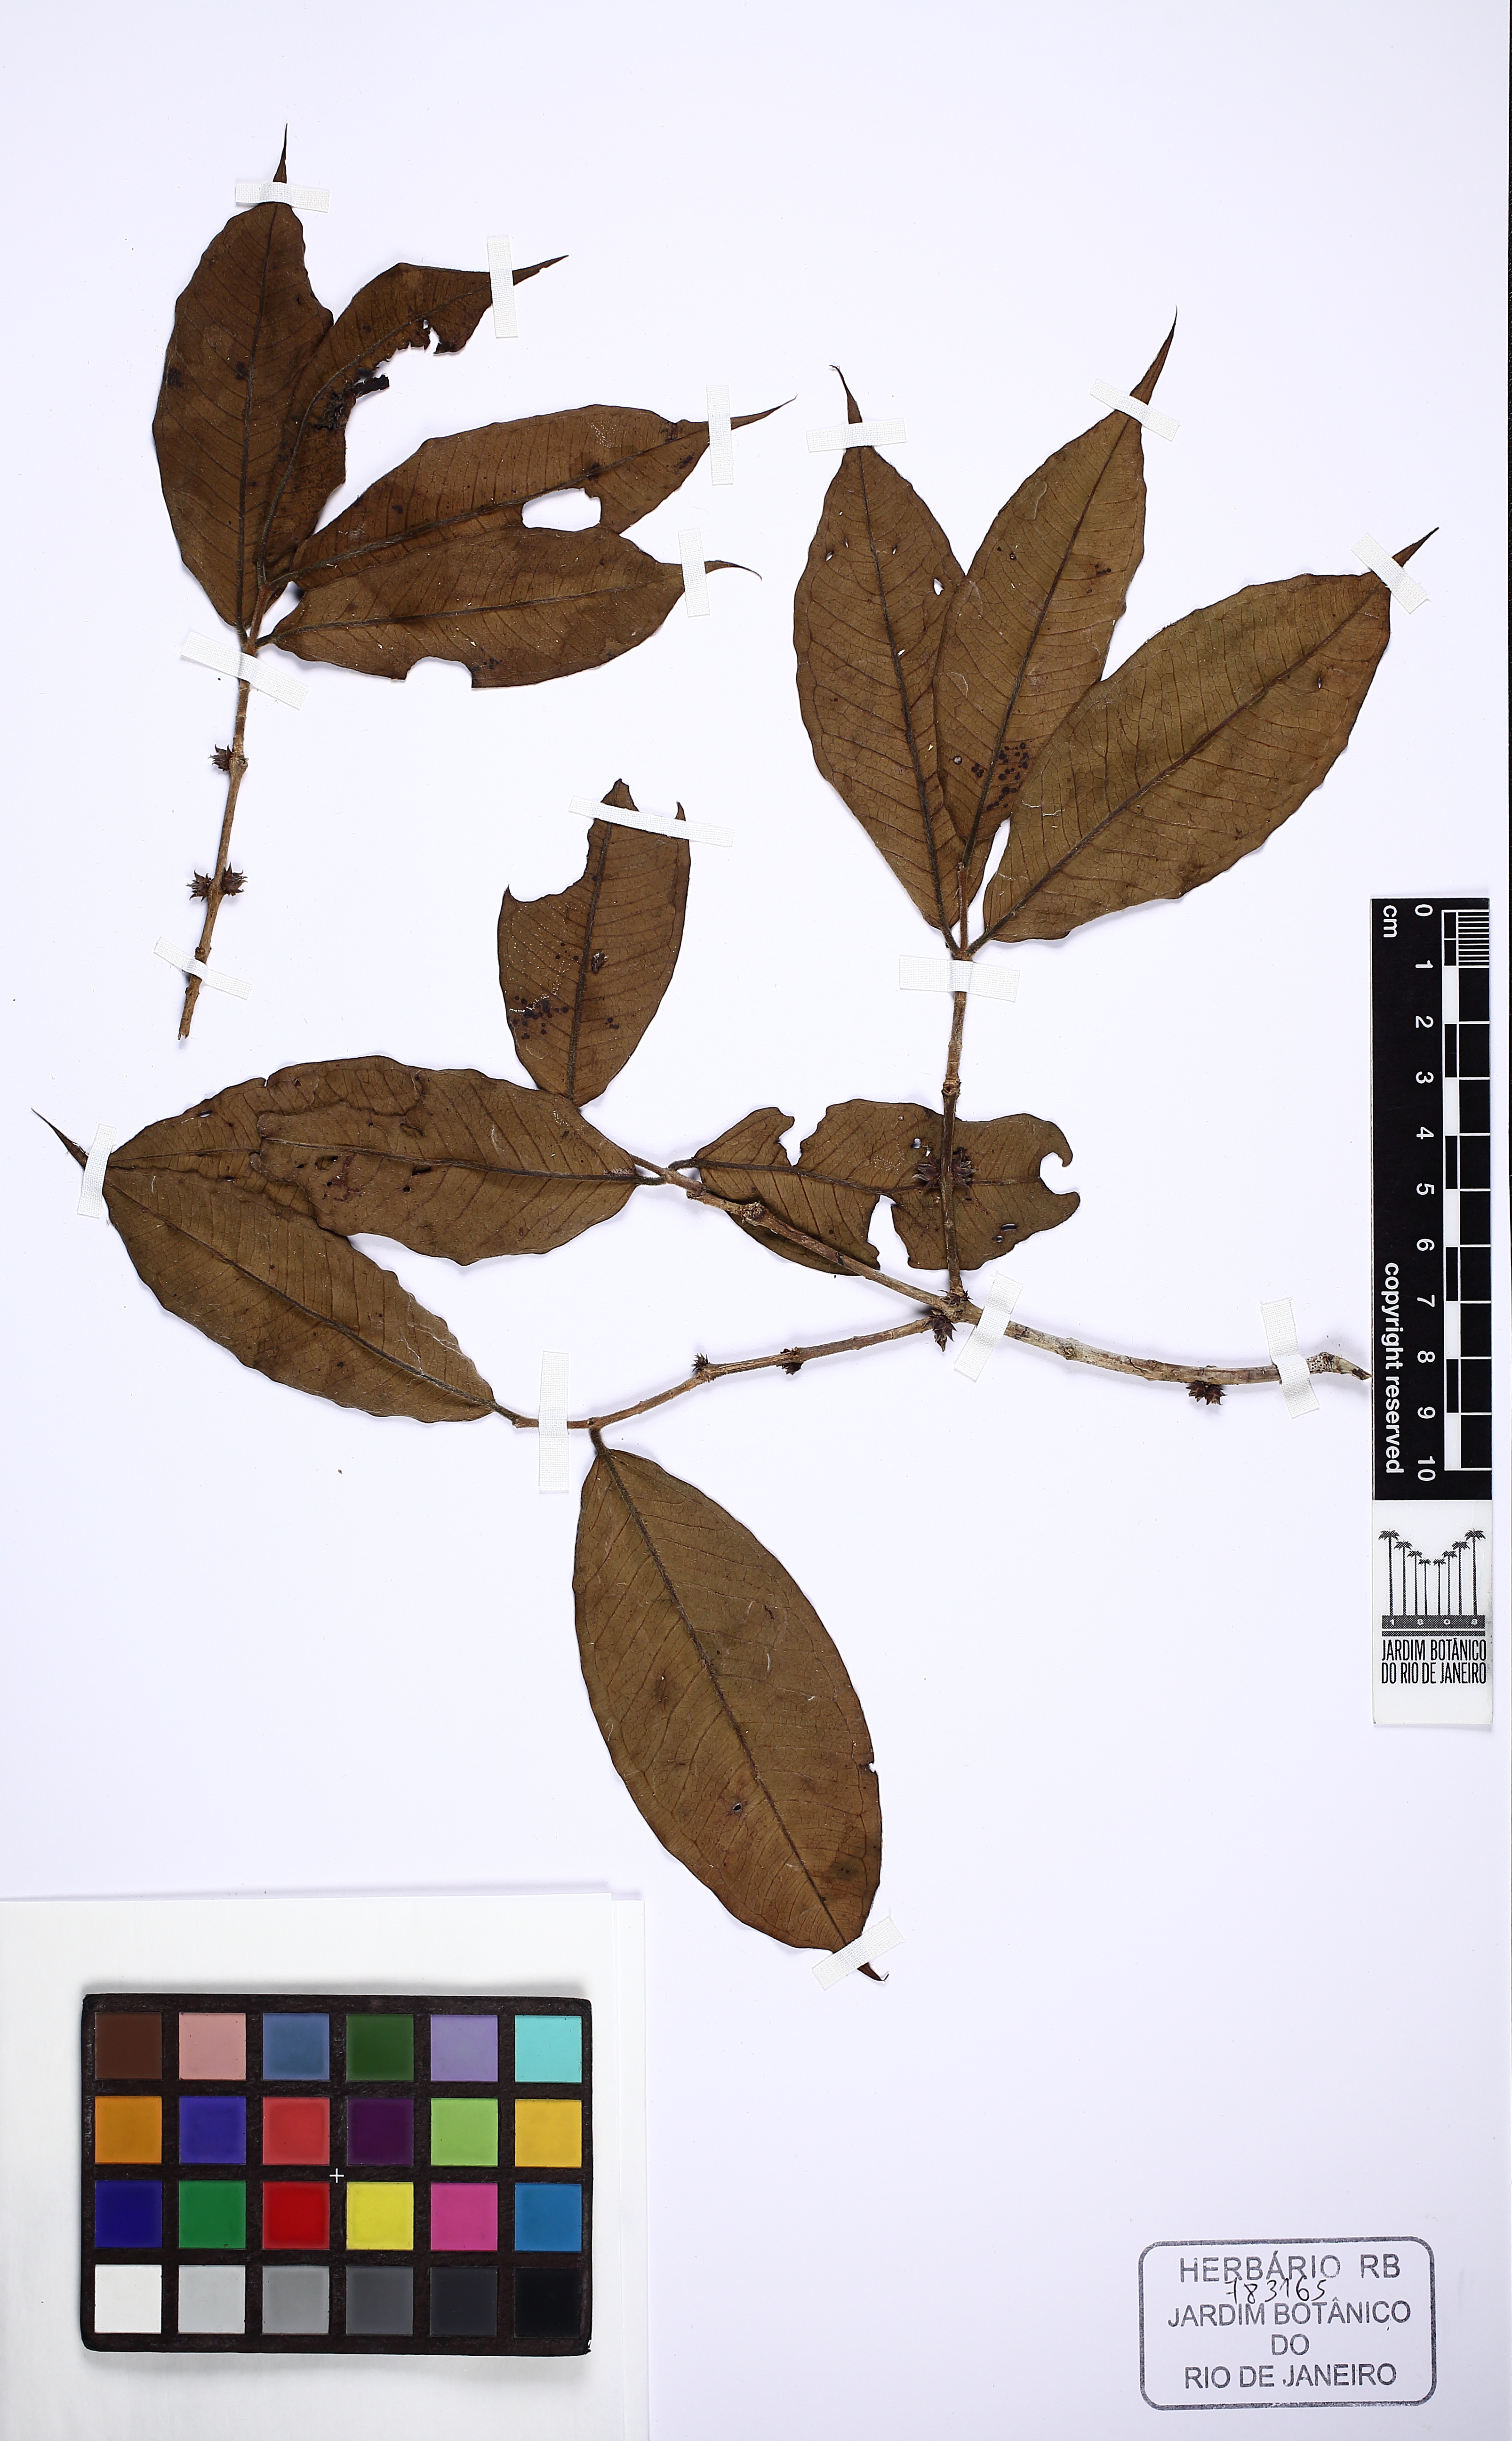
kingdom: Plantae
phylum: Tracheophyta
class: Magnoliopsida
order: Myrtales
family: Myrtaceae
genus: Plinia
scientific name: Plinia involucrata
